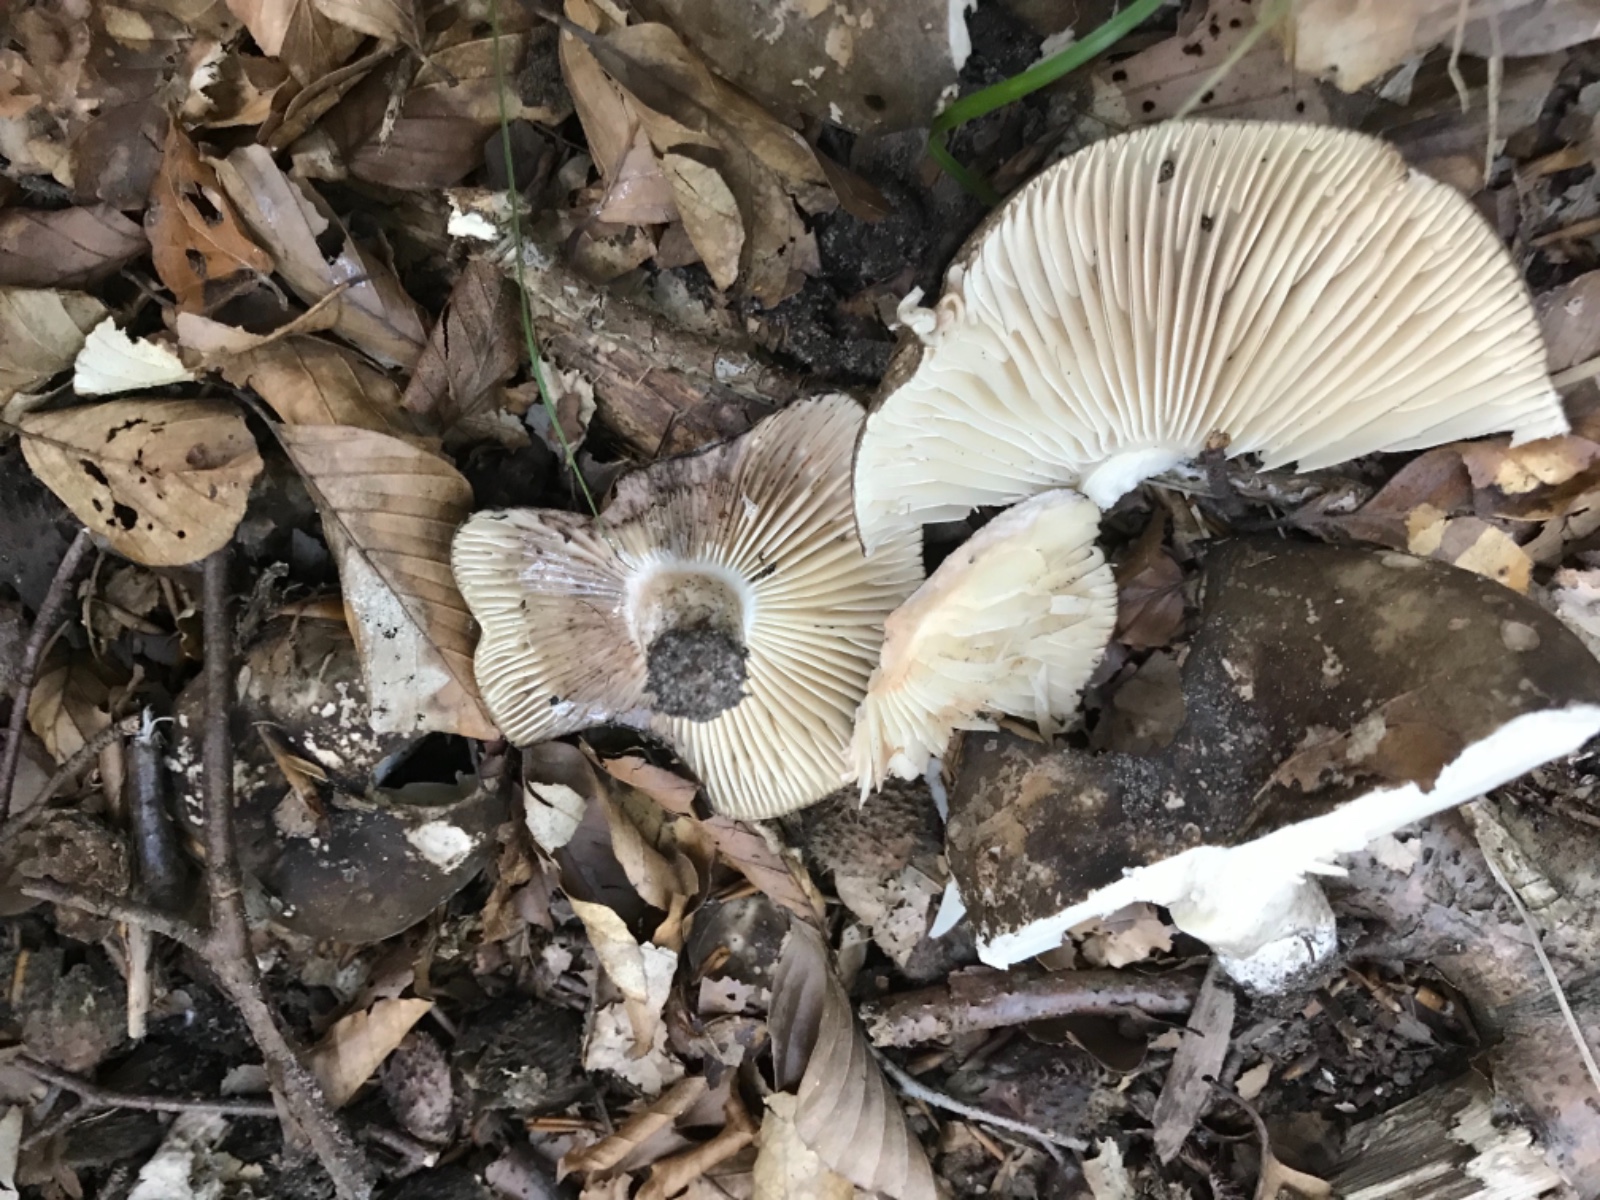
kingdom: Fungi
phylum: Basidiomycota
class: Agaricomycetes
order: Russulales
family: Russulaceae
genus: Russula
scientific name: Russula adusta
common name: sværtende skørhat
